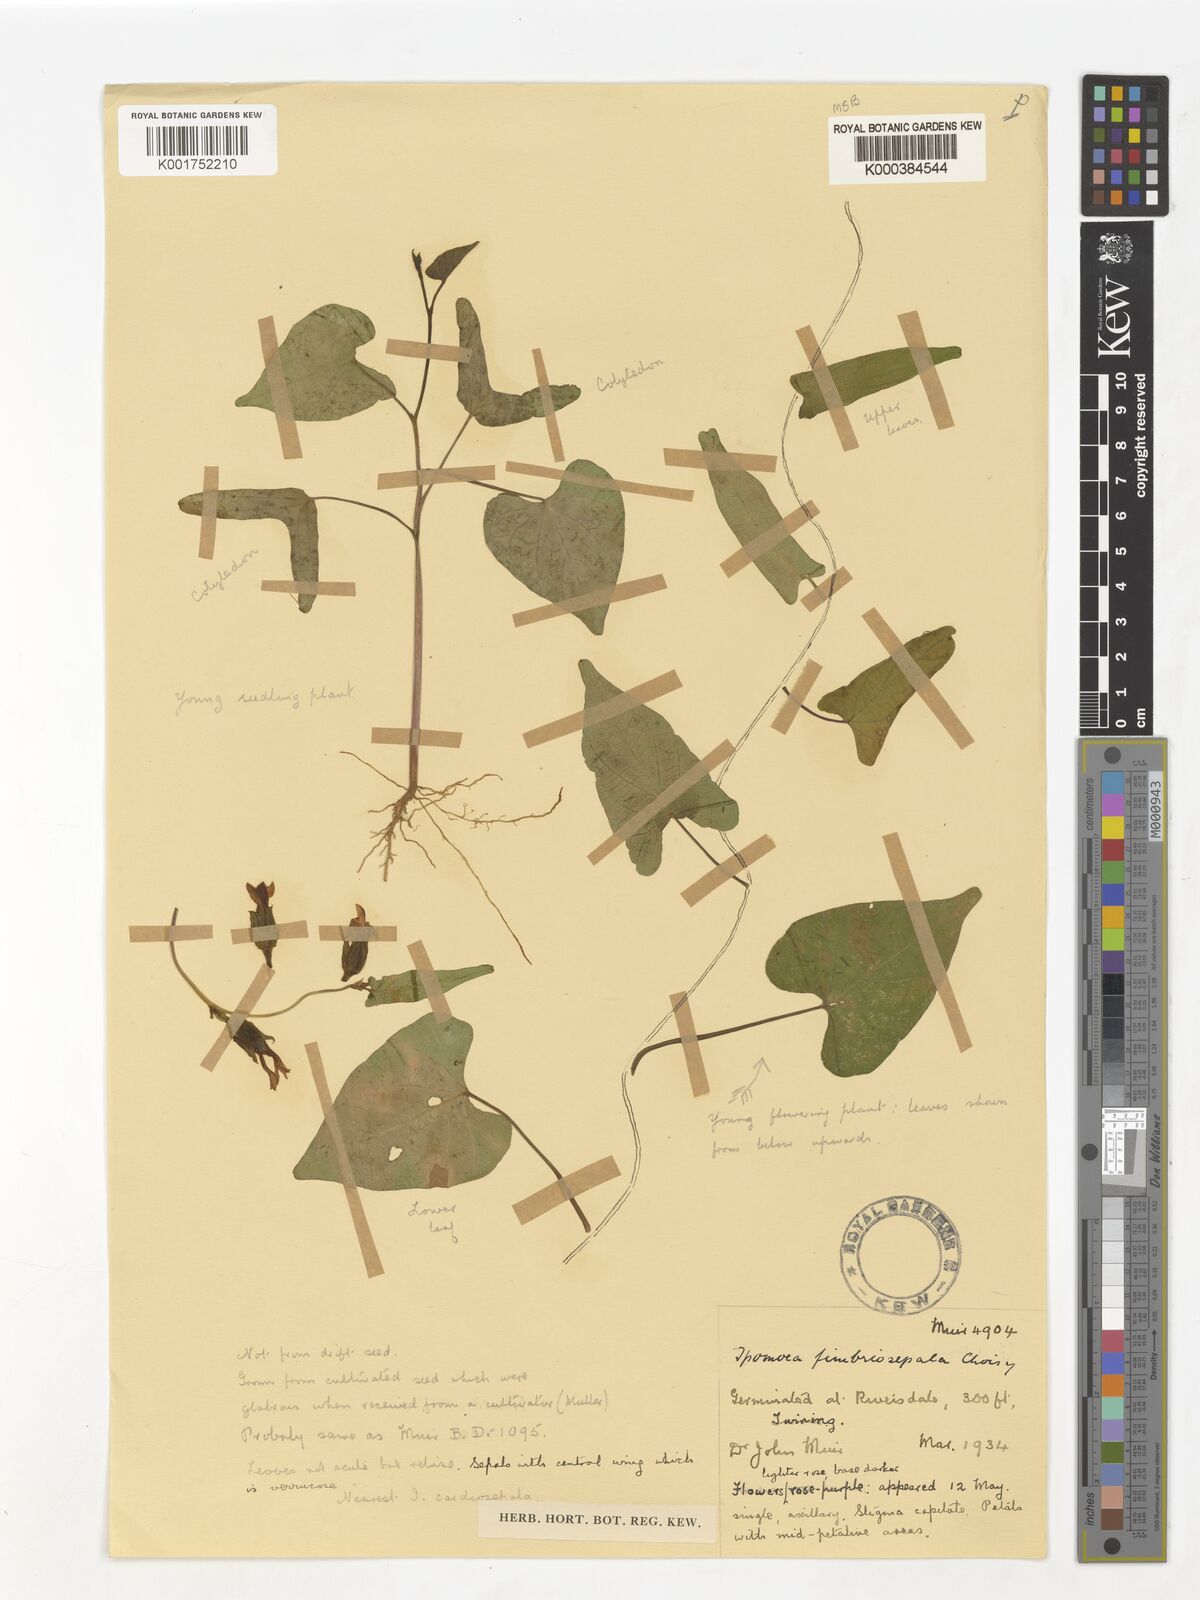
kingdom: Plantae
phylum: Tracheophyta
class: Magnoliopsida
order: Solanales
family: Convolvulaceae
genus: Ipomoea
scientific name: Ipomoea fimbriosepala
